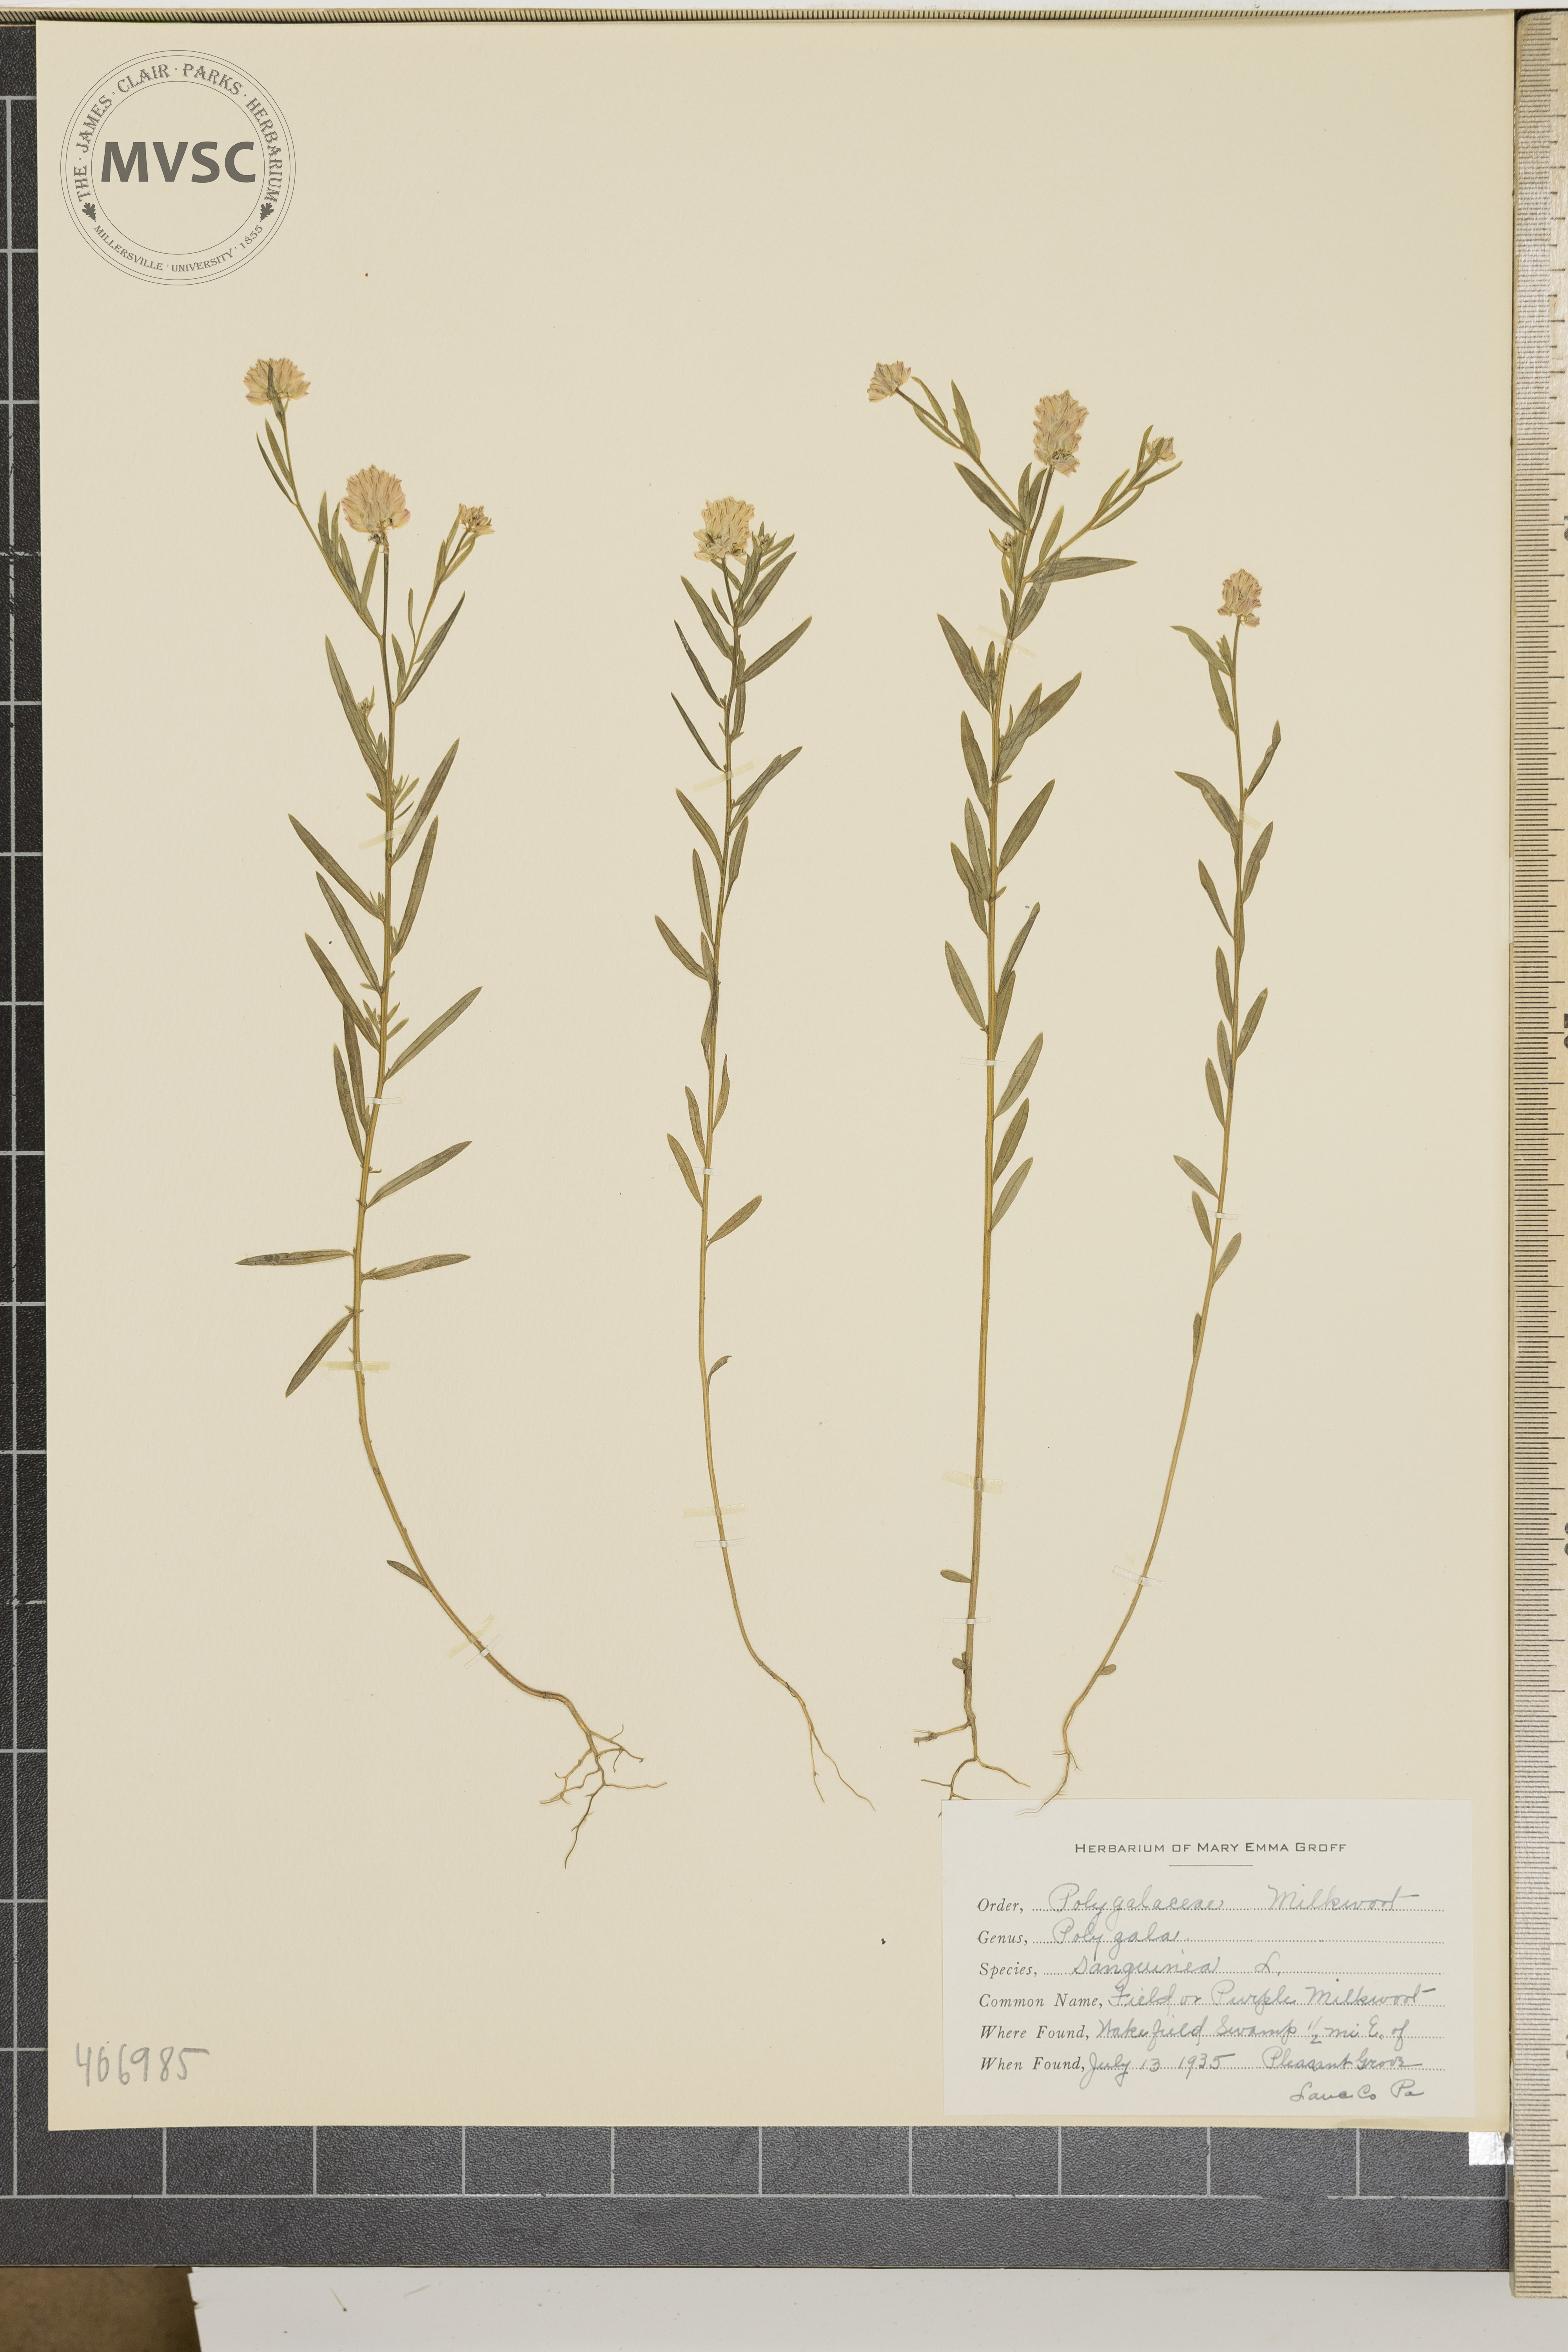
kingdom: Plantae
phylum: Tracheophyta
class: Magnoliopsida
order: Fabales
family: Polygalaceae
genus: Polygala
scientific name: Polygala sanguinea
